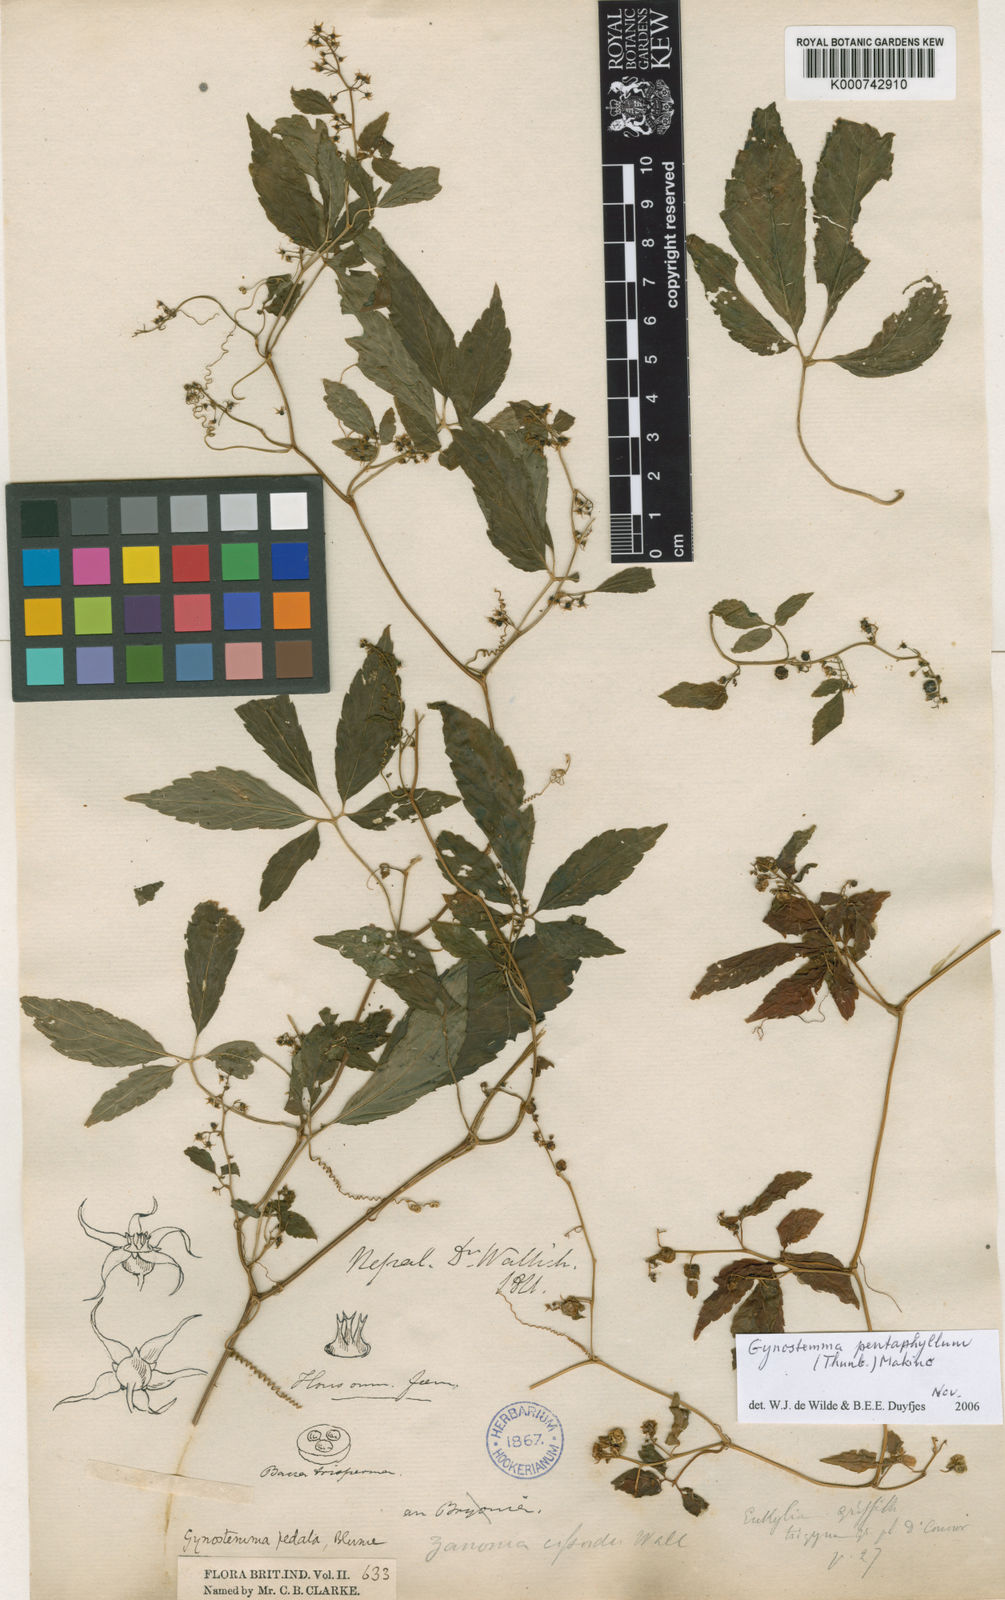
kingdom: Plantae
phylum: Tracheophyta
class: Magnoliopsida
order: Cucurbitales
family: Cucurbitaceae
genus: Gynostemma
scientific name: Gynostemma pentaphyllum
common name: Gynostemma
